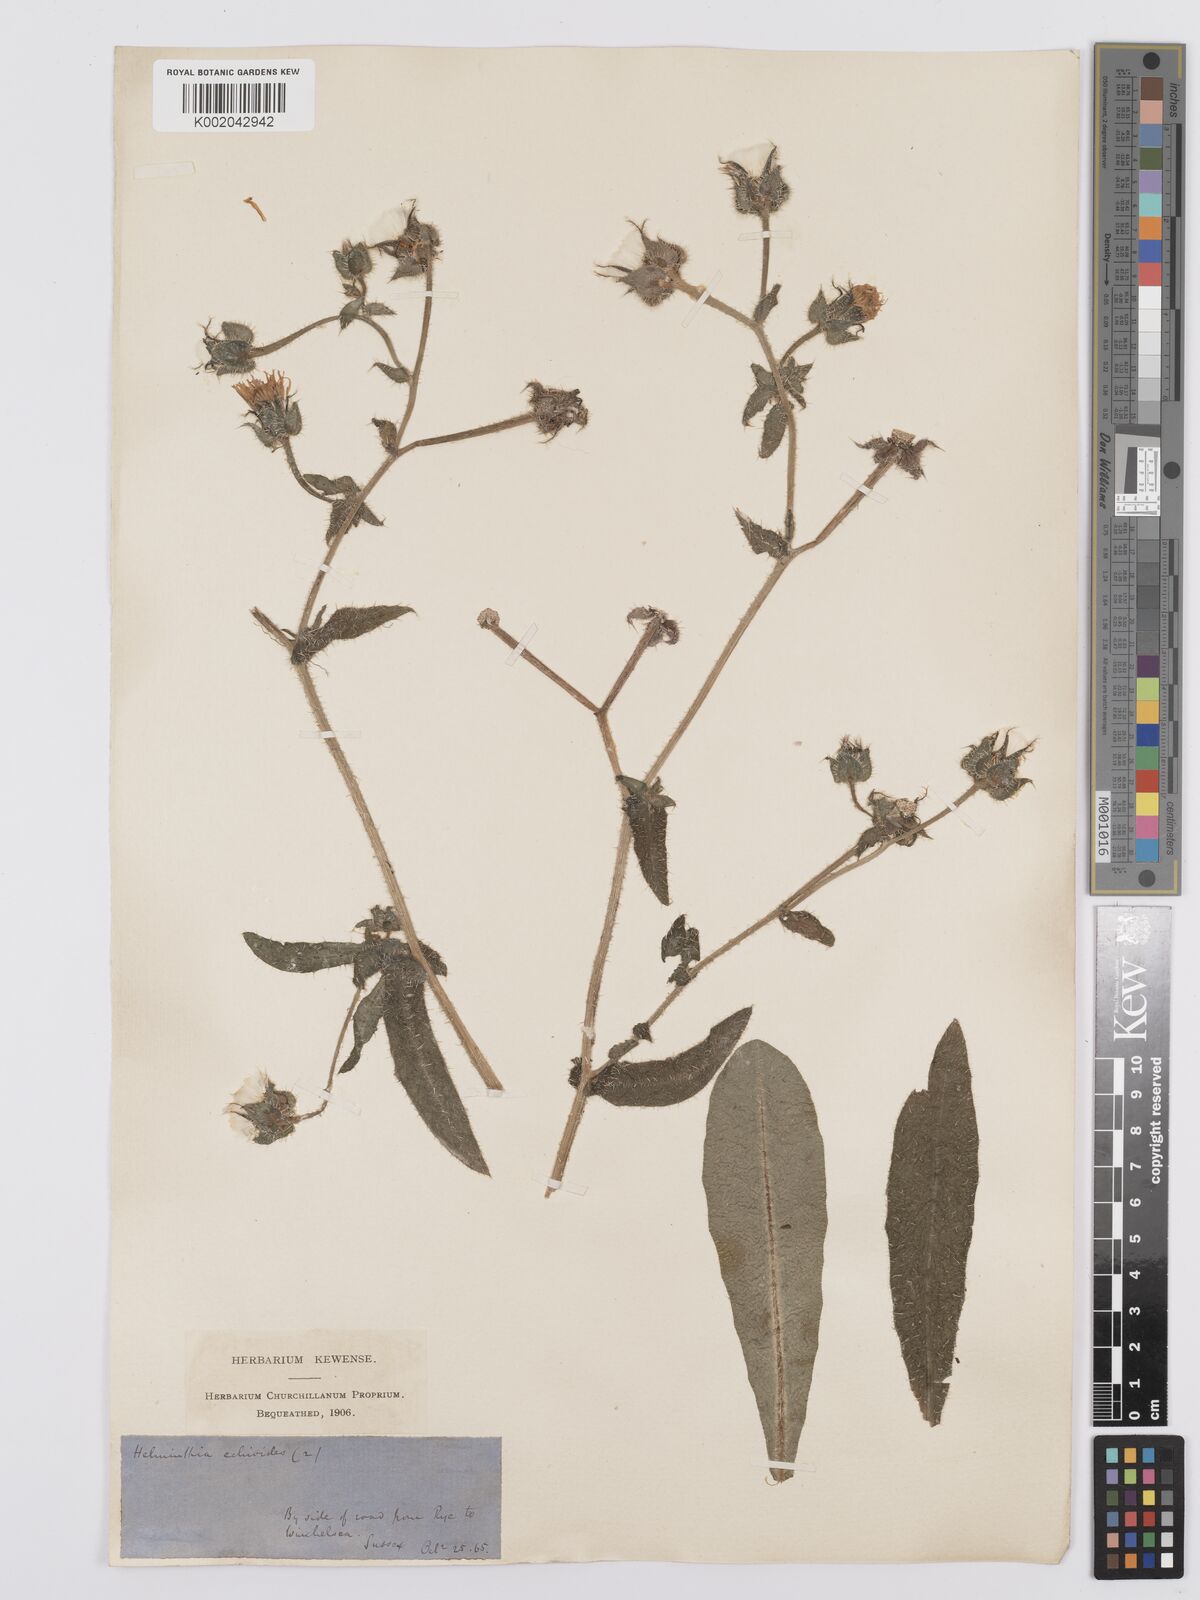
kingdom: Plantae
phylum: Tracheophyta
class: Magnoliopsida
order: Asterales
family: Asteraceae
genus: Helminthotheca
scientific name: Helminthotheca echioides
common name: Ox-tongue
